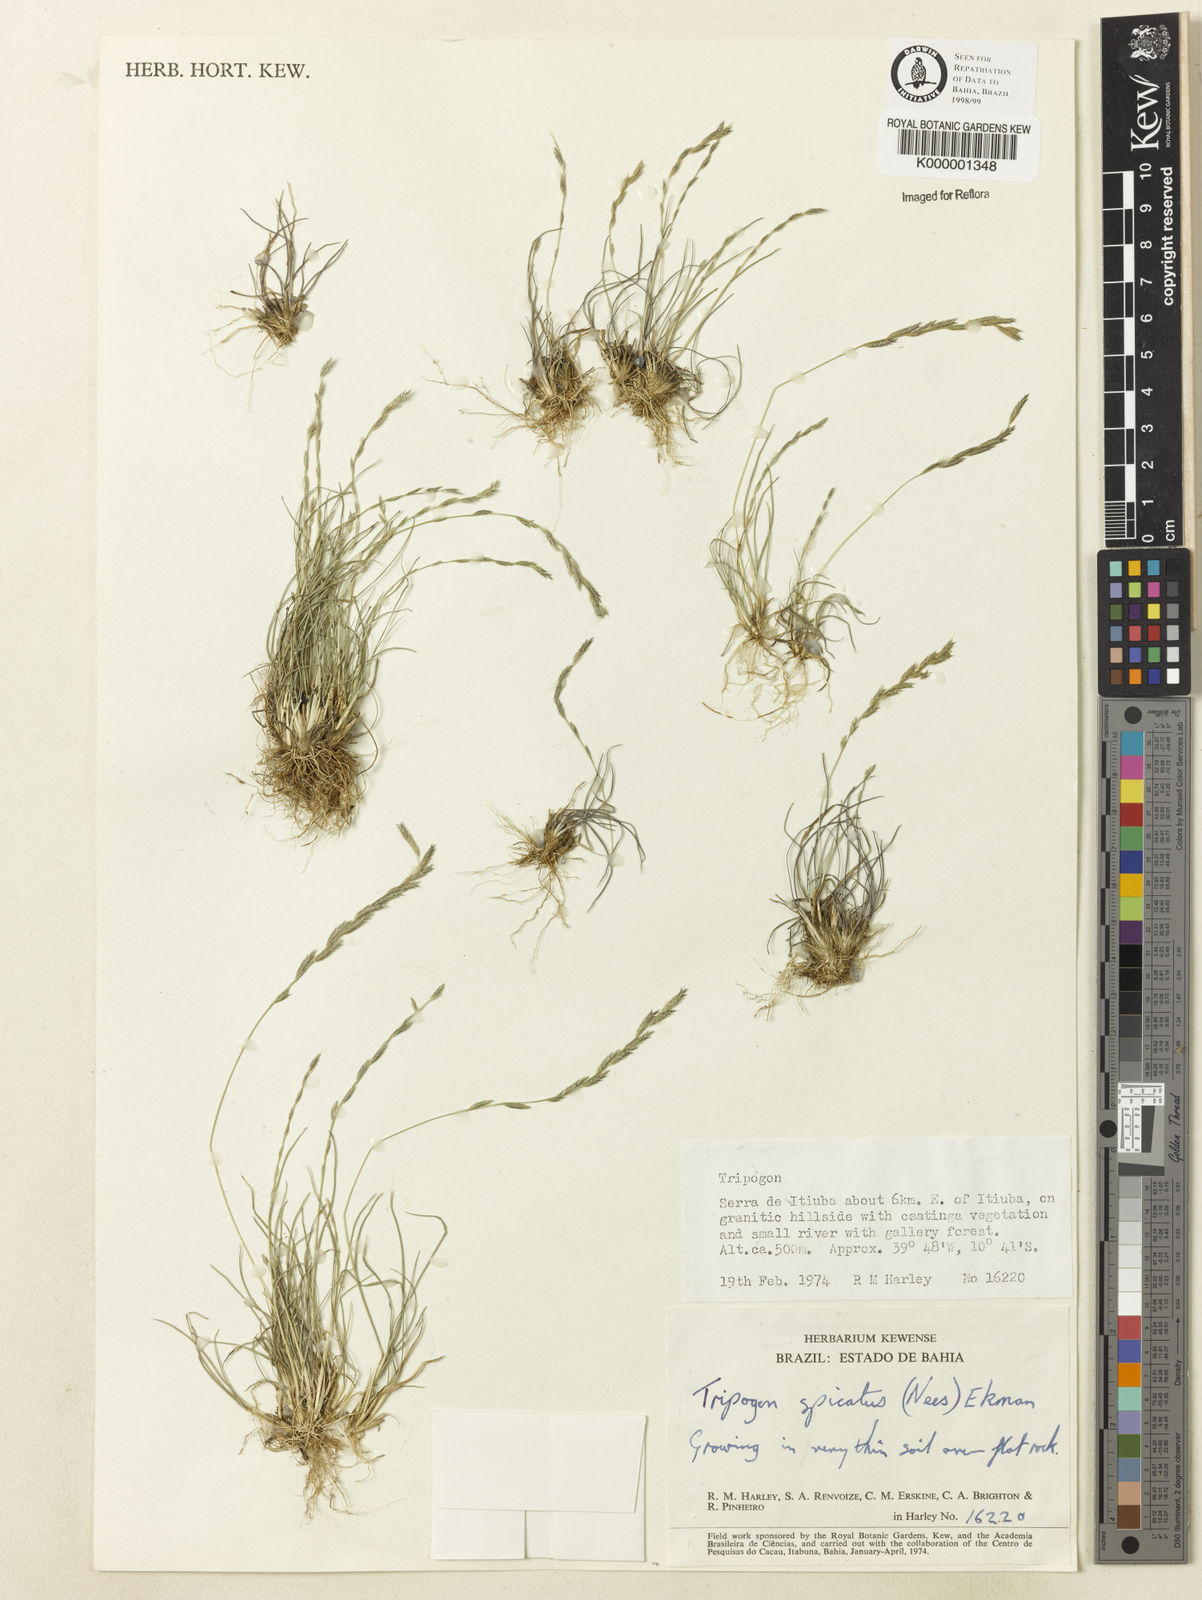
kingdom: Plantae
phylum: Tracheophyta
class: Liliopsida
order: Poales
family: Poaceae
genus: Tripogonella
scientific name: Tripogonella spicata
